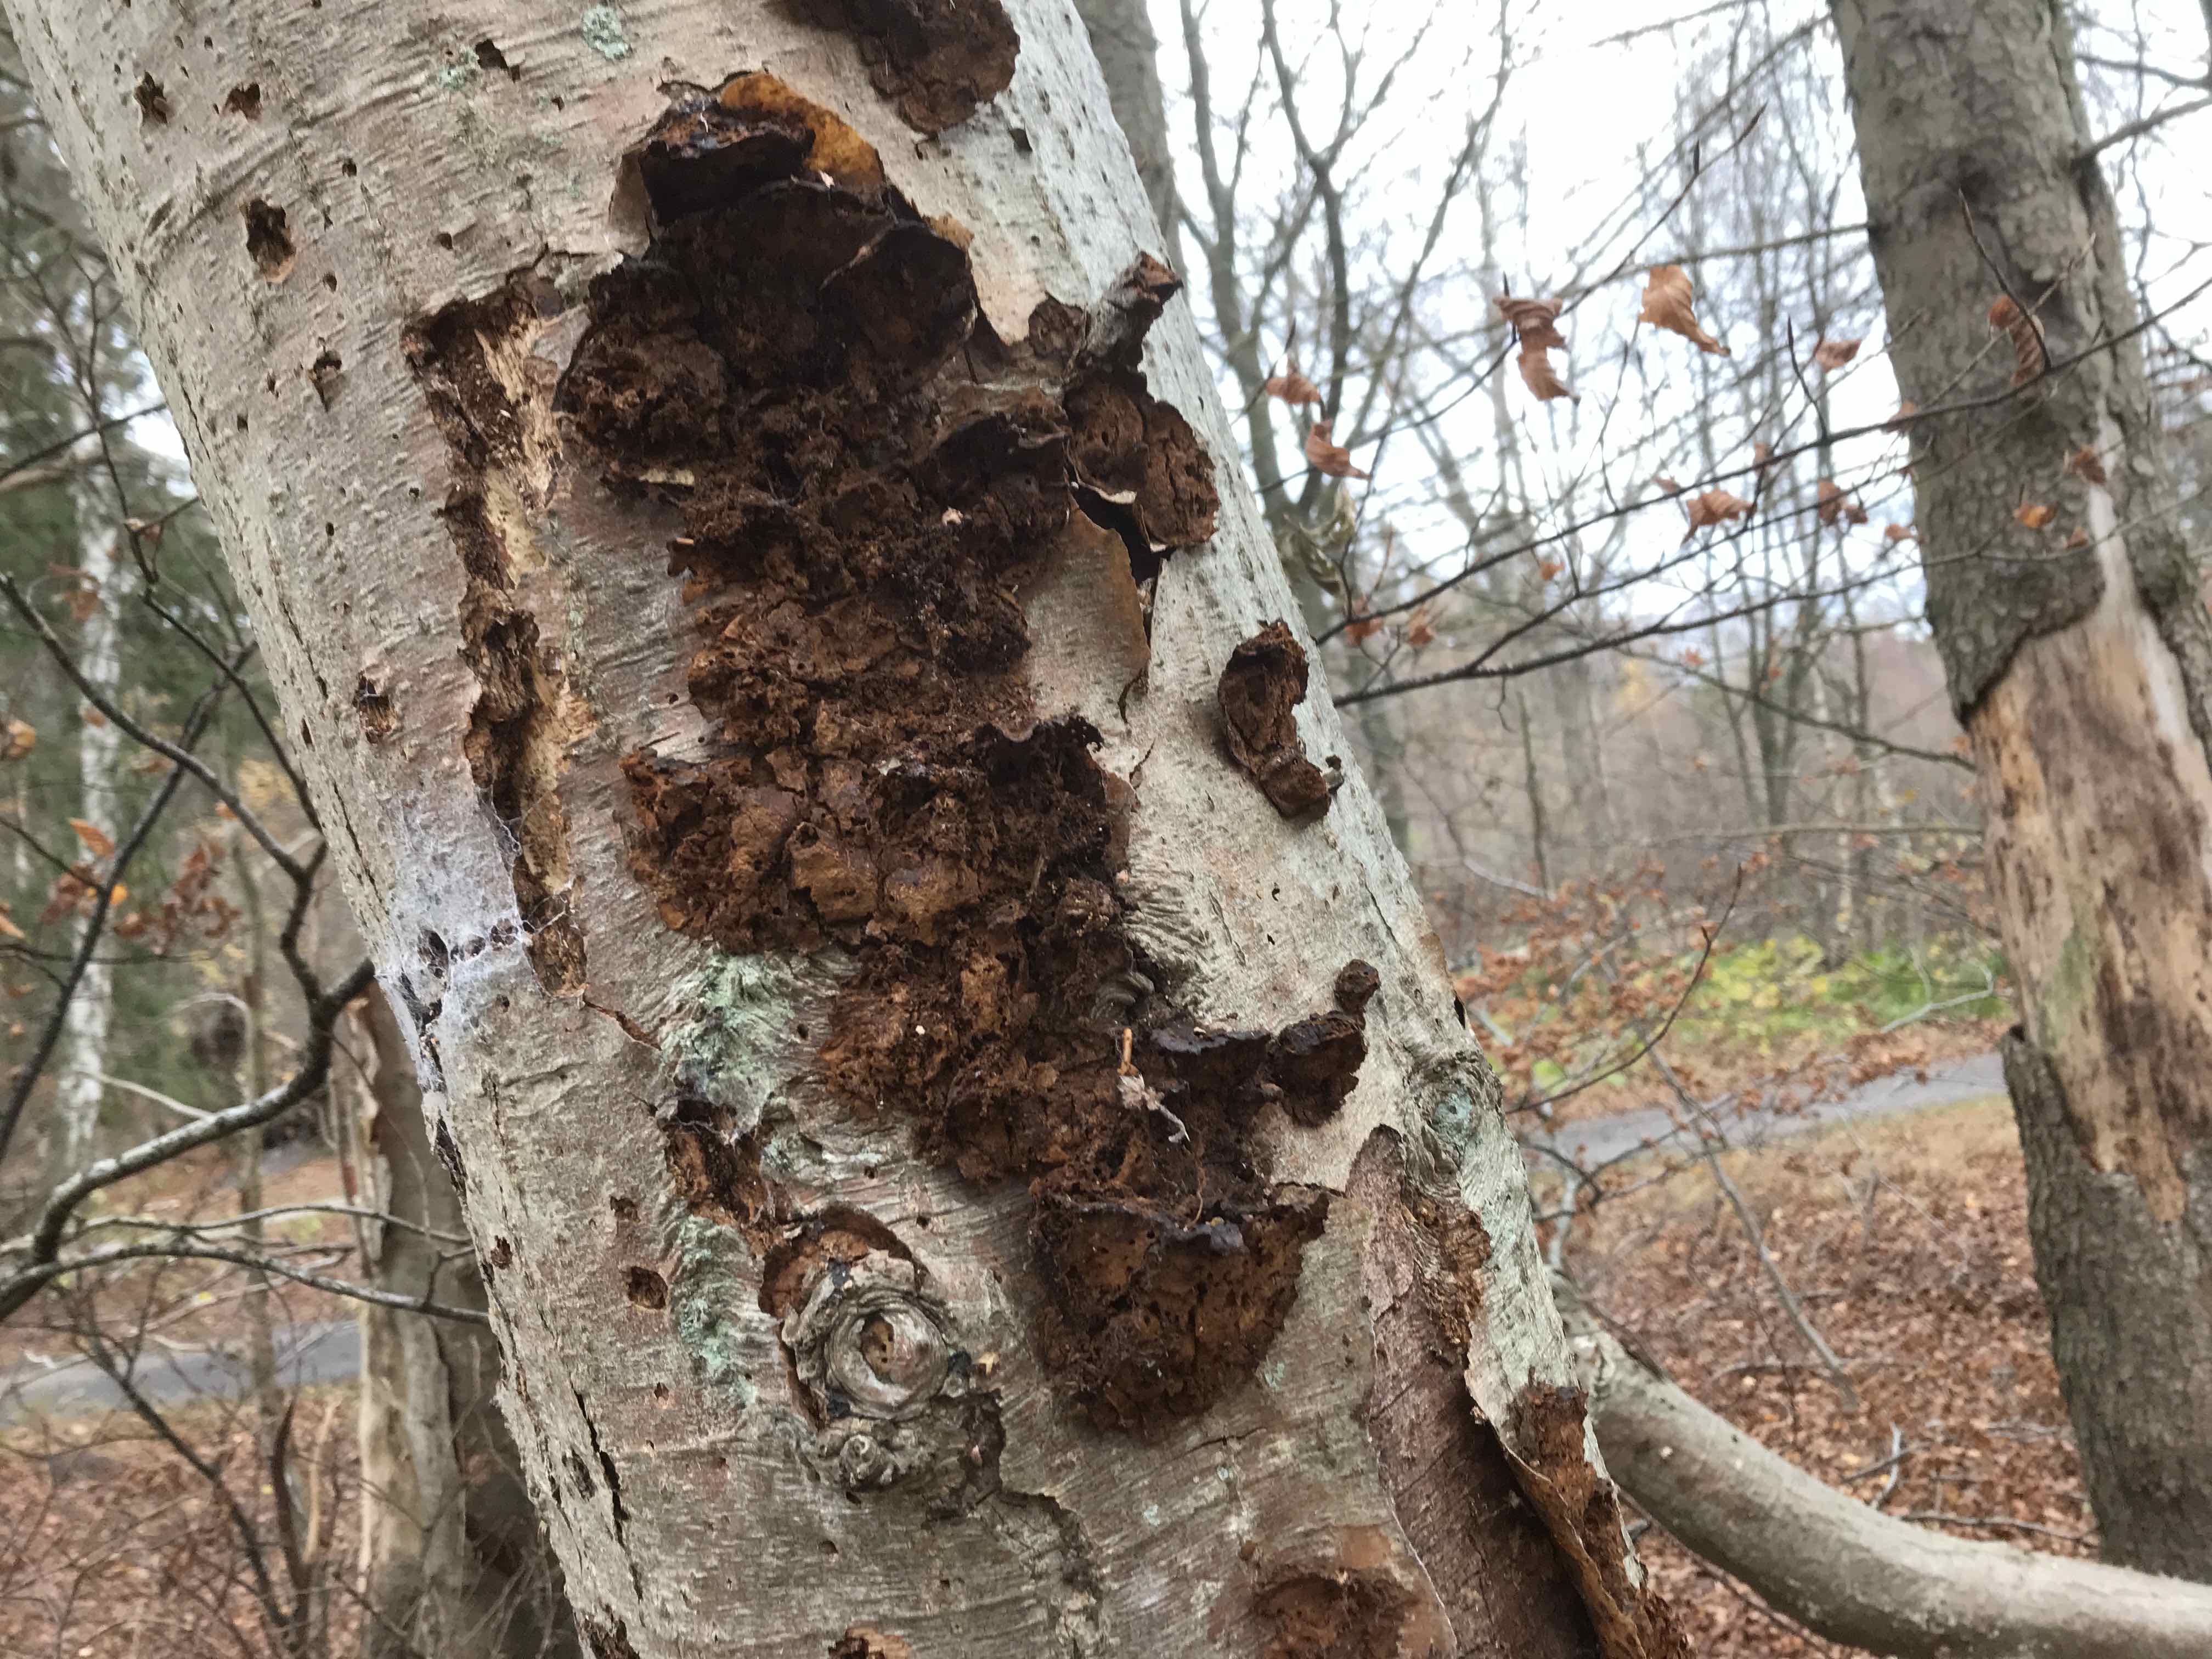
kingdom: Fungi
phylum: Basidiomycota
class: Agaricomycetes
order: Hymenochaetales
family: Hymenochaetaceae
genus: Xanthoporia
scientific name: Xanthoporia radiata
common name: elle-spejlporesvamp
